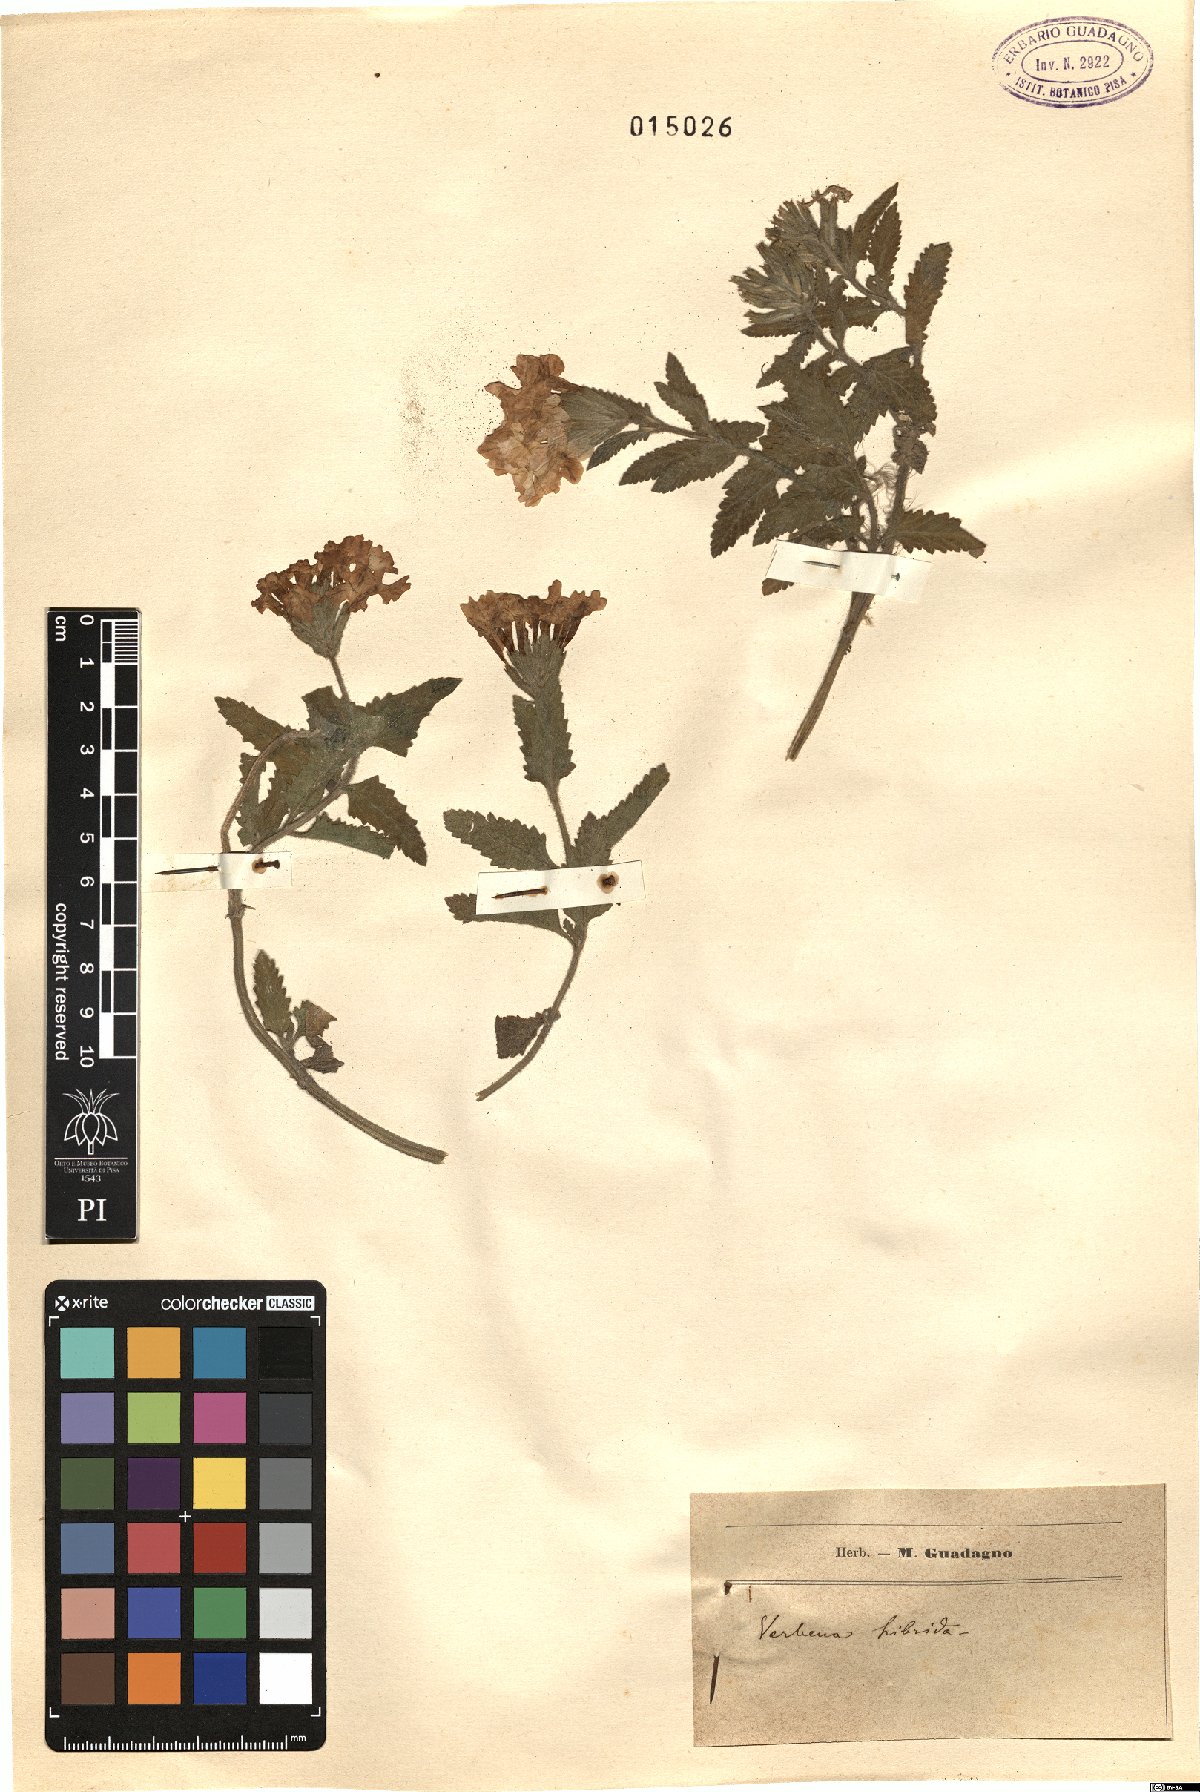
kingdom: Plantae
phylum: Tracheophyta
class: Magnoliopsida
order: Lamiales
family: Verbenaceae
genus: Verbena
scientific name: Verbena hybrida
